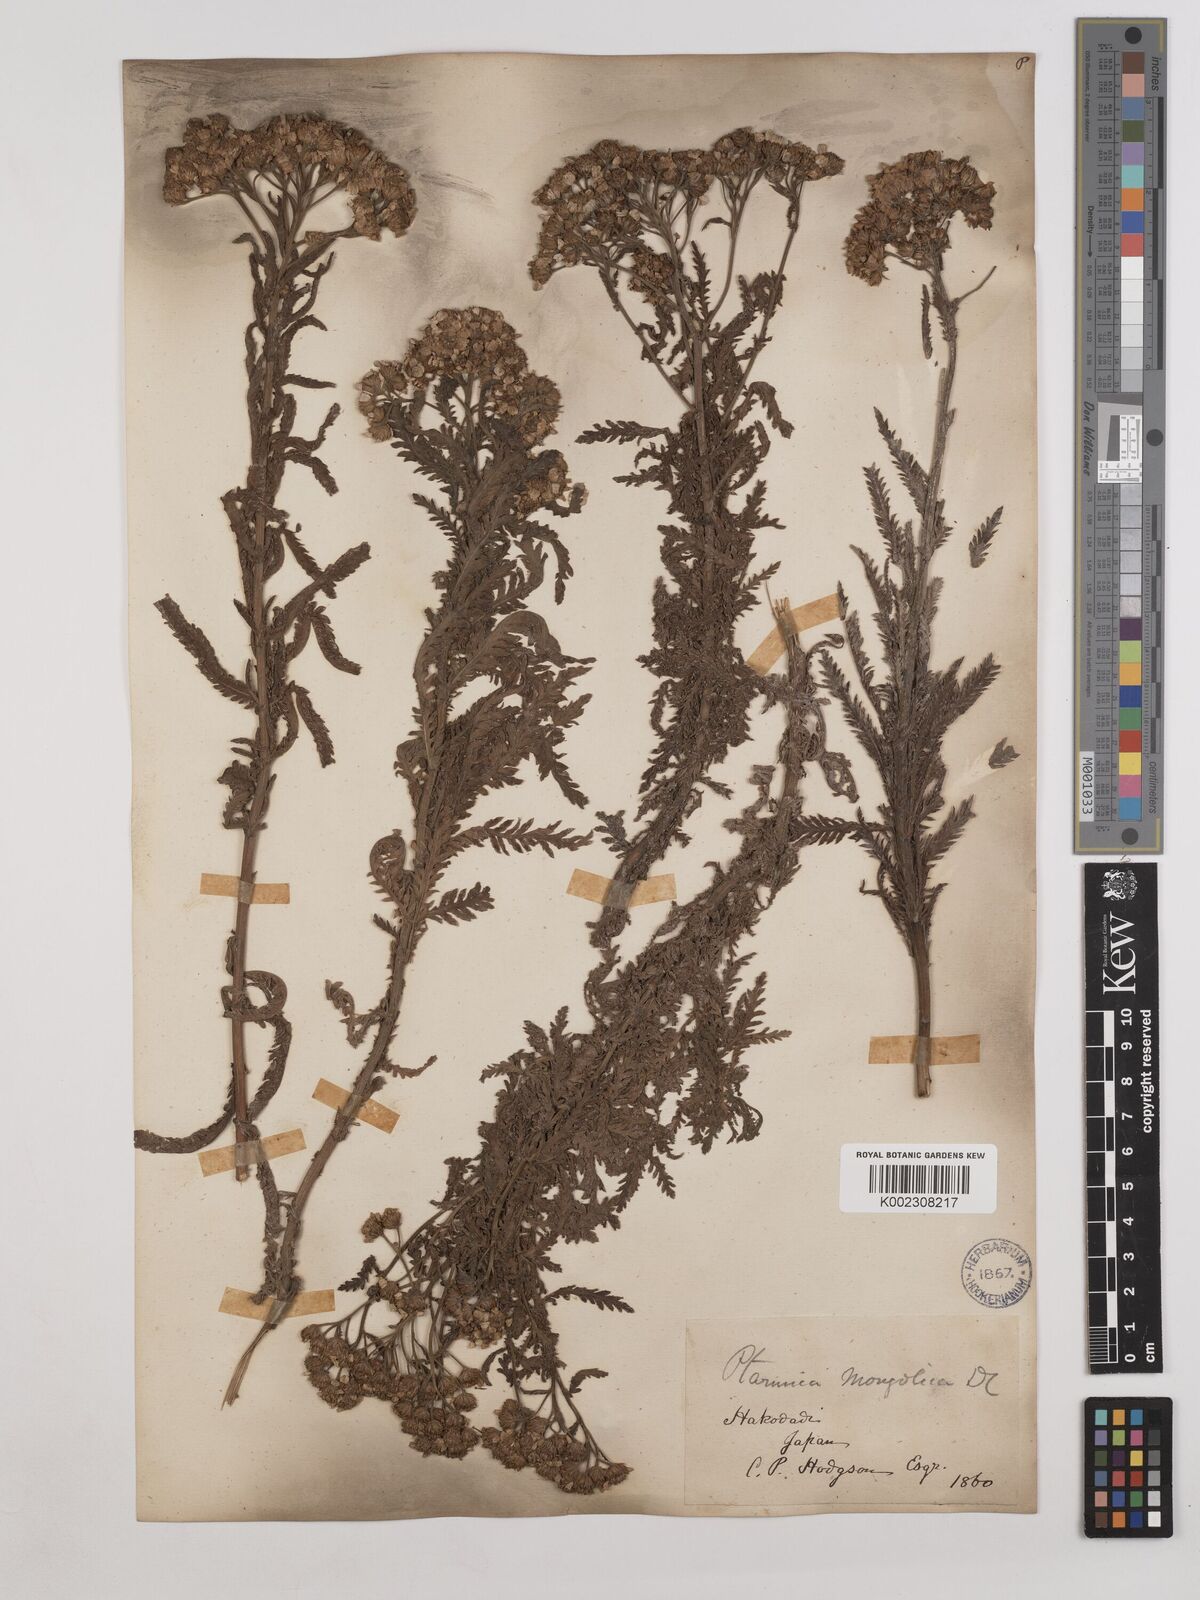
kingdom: Plantae
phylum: Tracheophyta
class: Magnoliopsida
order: Asterales
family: Asteraceae
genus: Achillea
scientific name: Achillea alpina
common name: Siberian yarrow
